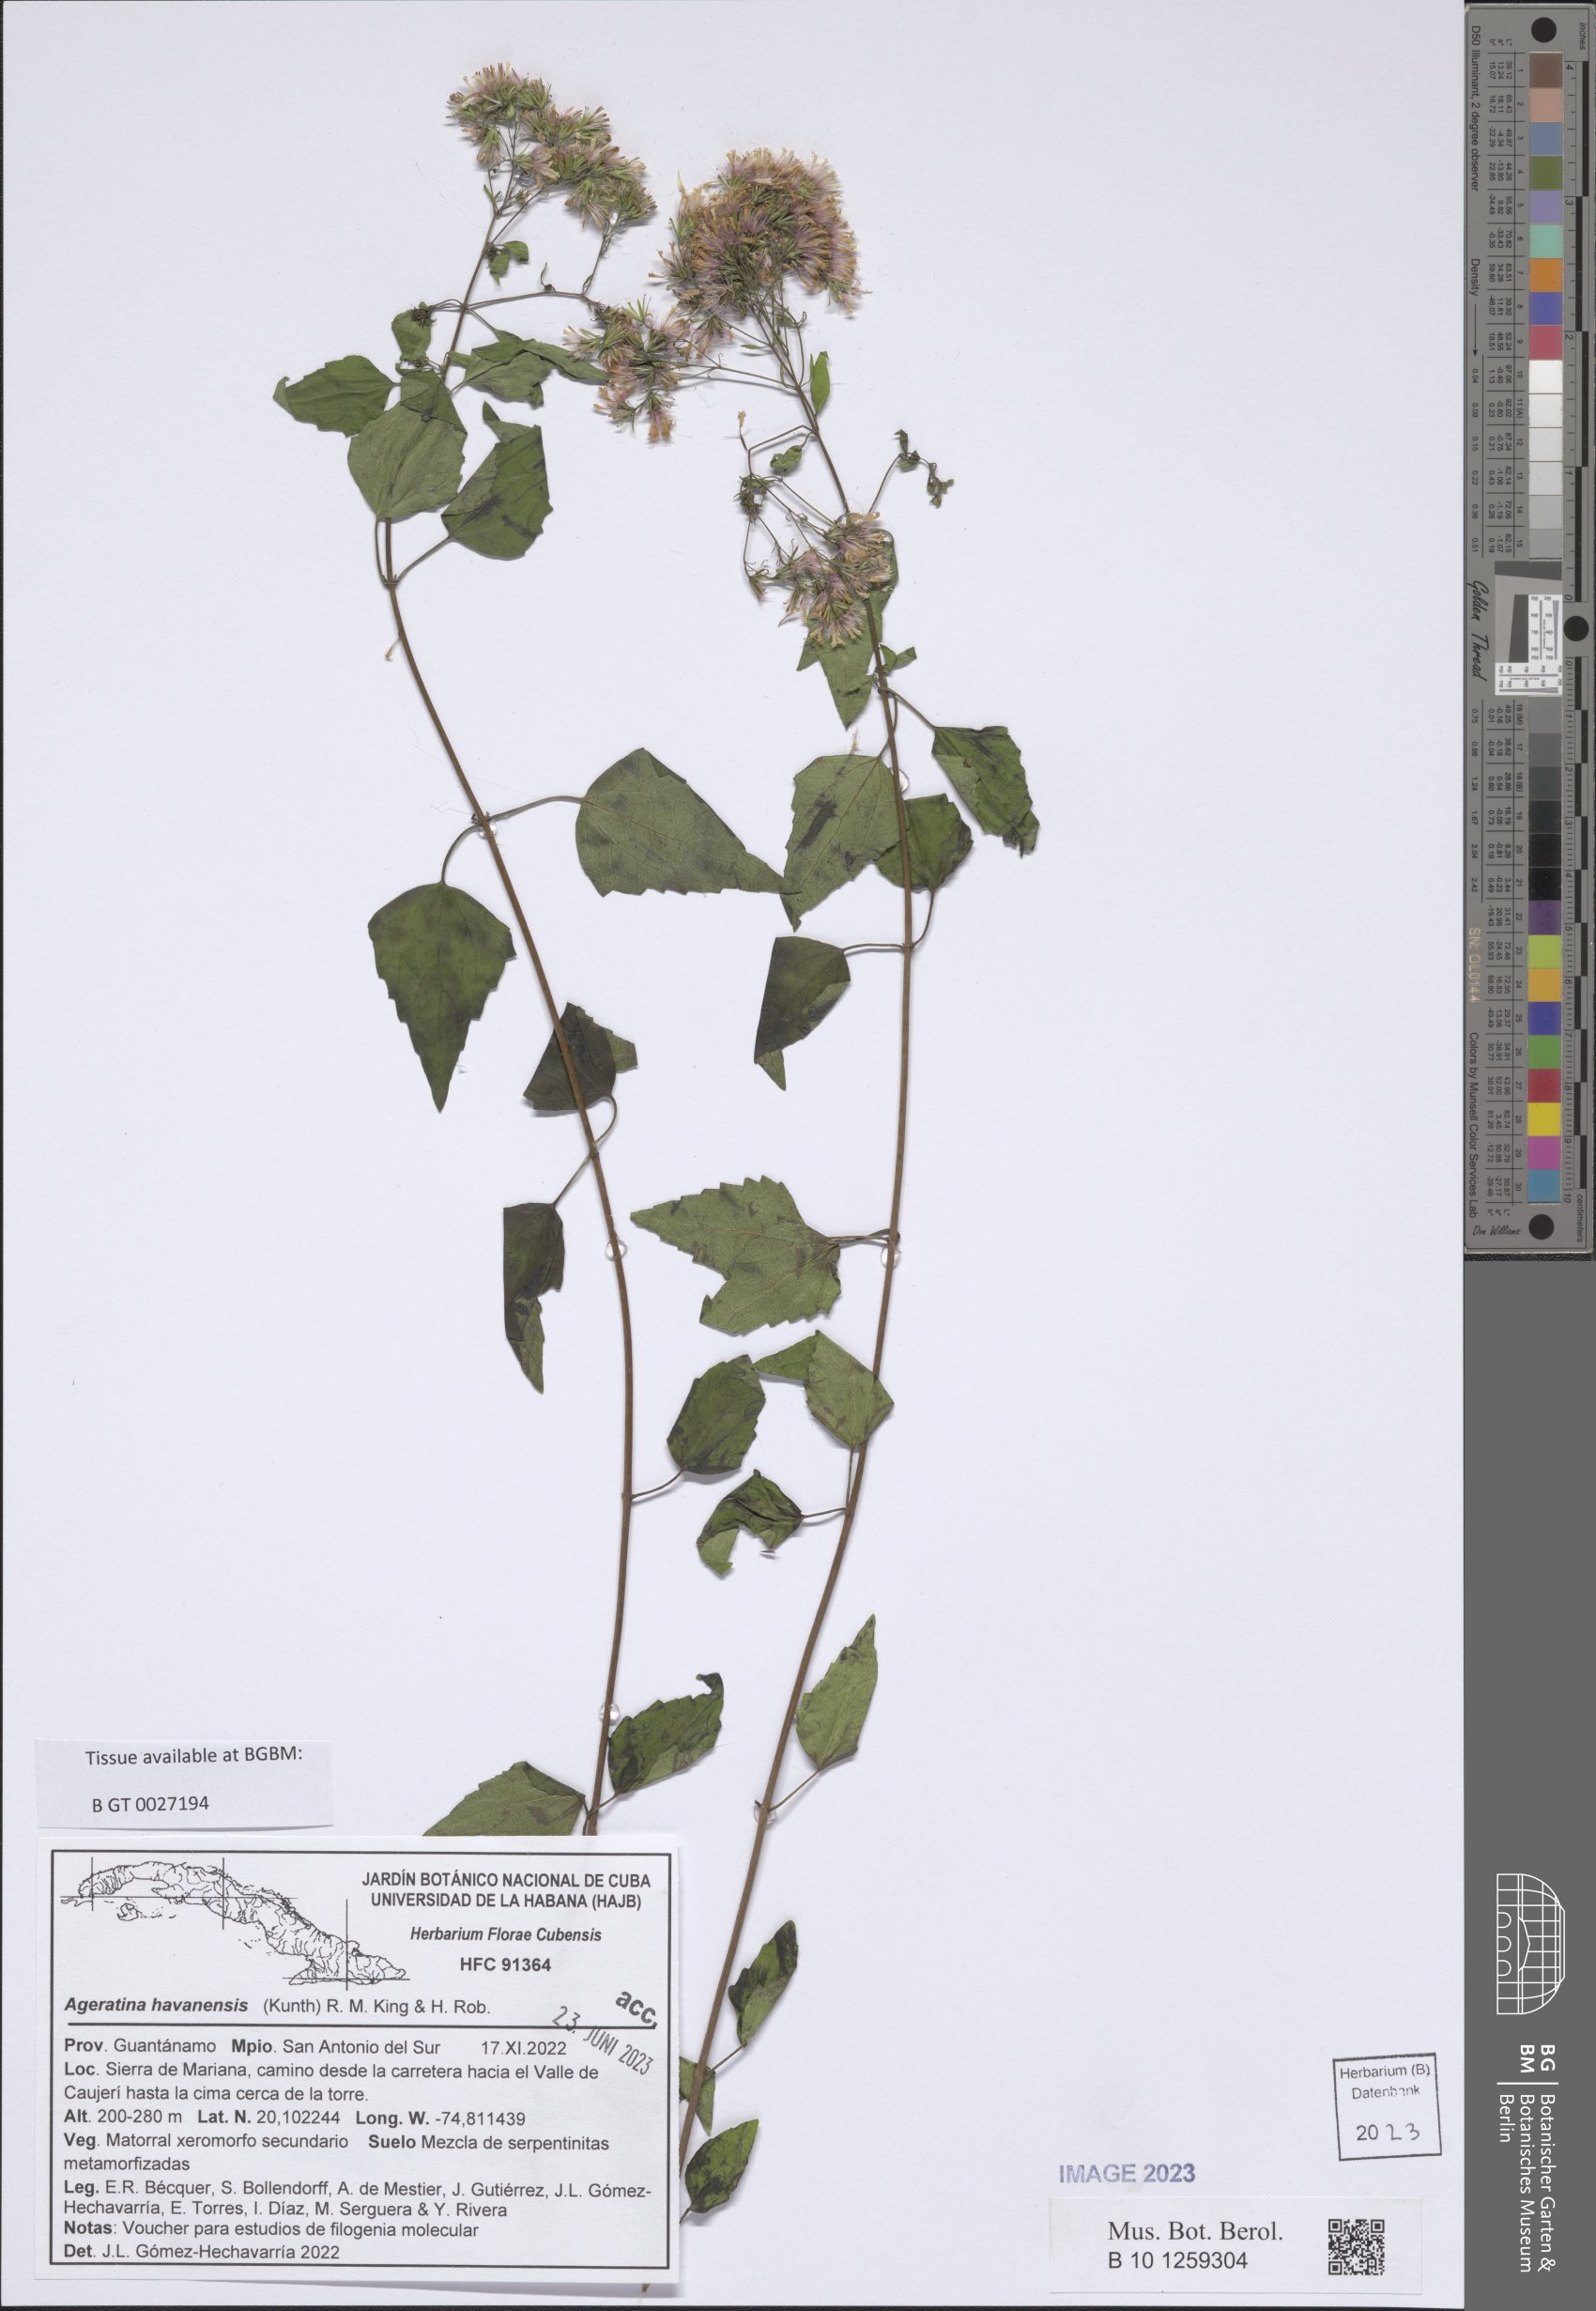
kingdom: Plantae
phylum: Tracheophyta
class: Magnoliopsida
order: Asterales
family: Asteraceae
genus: Ageratina
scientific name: Ageratina havanensis
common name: Havana snakeroot
